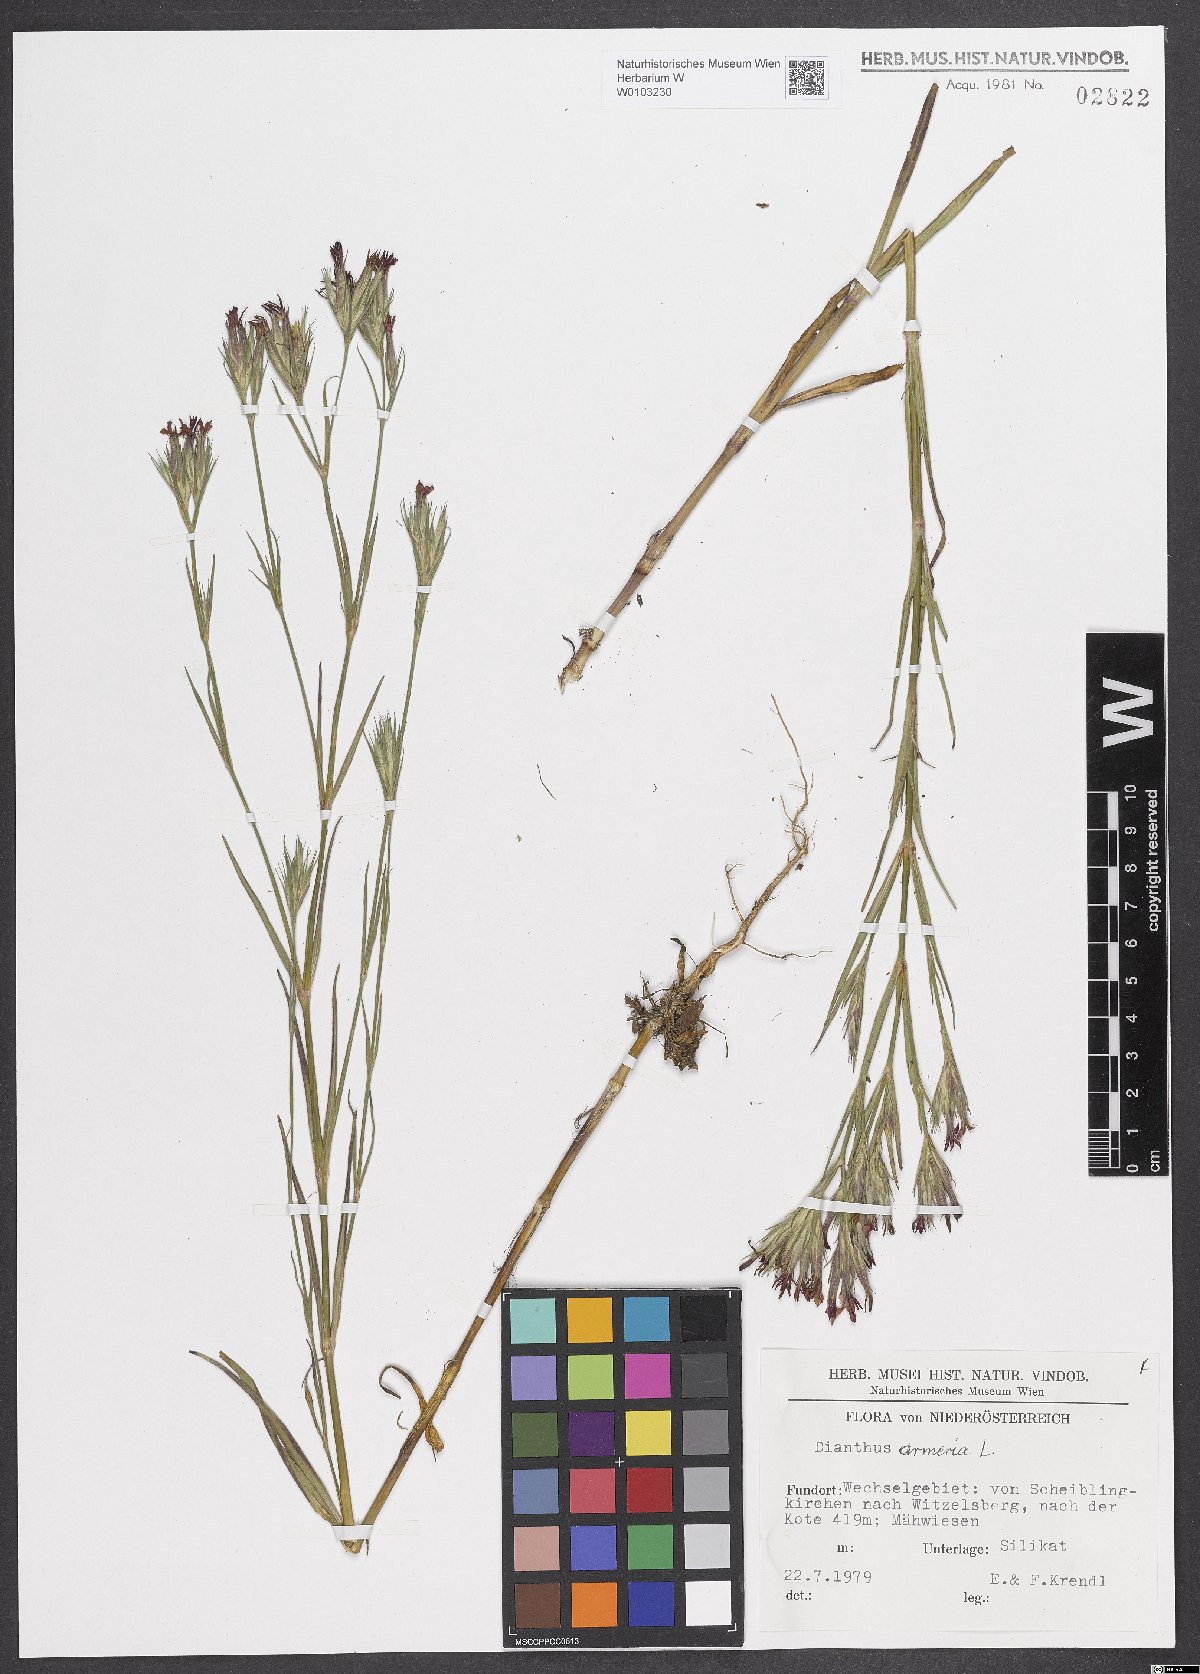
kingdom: Plantae
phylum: Tracheophyta
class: Magnoliopsida
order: Caryophyllales
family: Caryophyllaceae
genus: Dianthus
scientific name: Dianthus armeria
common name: Deptford pink
